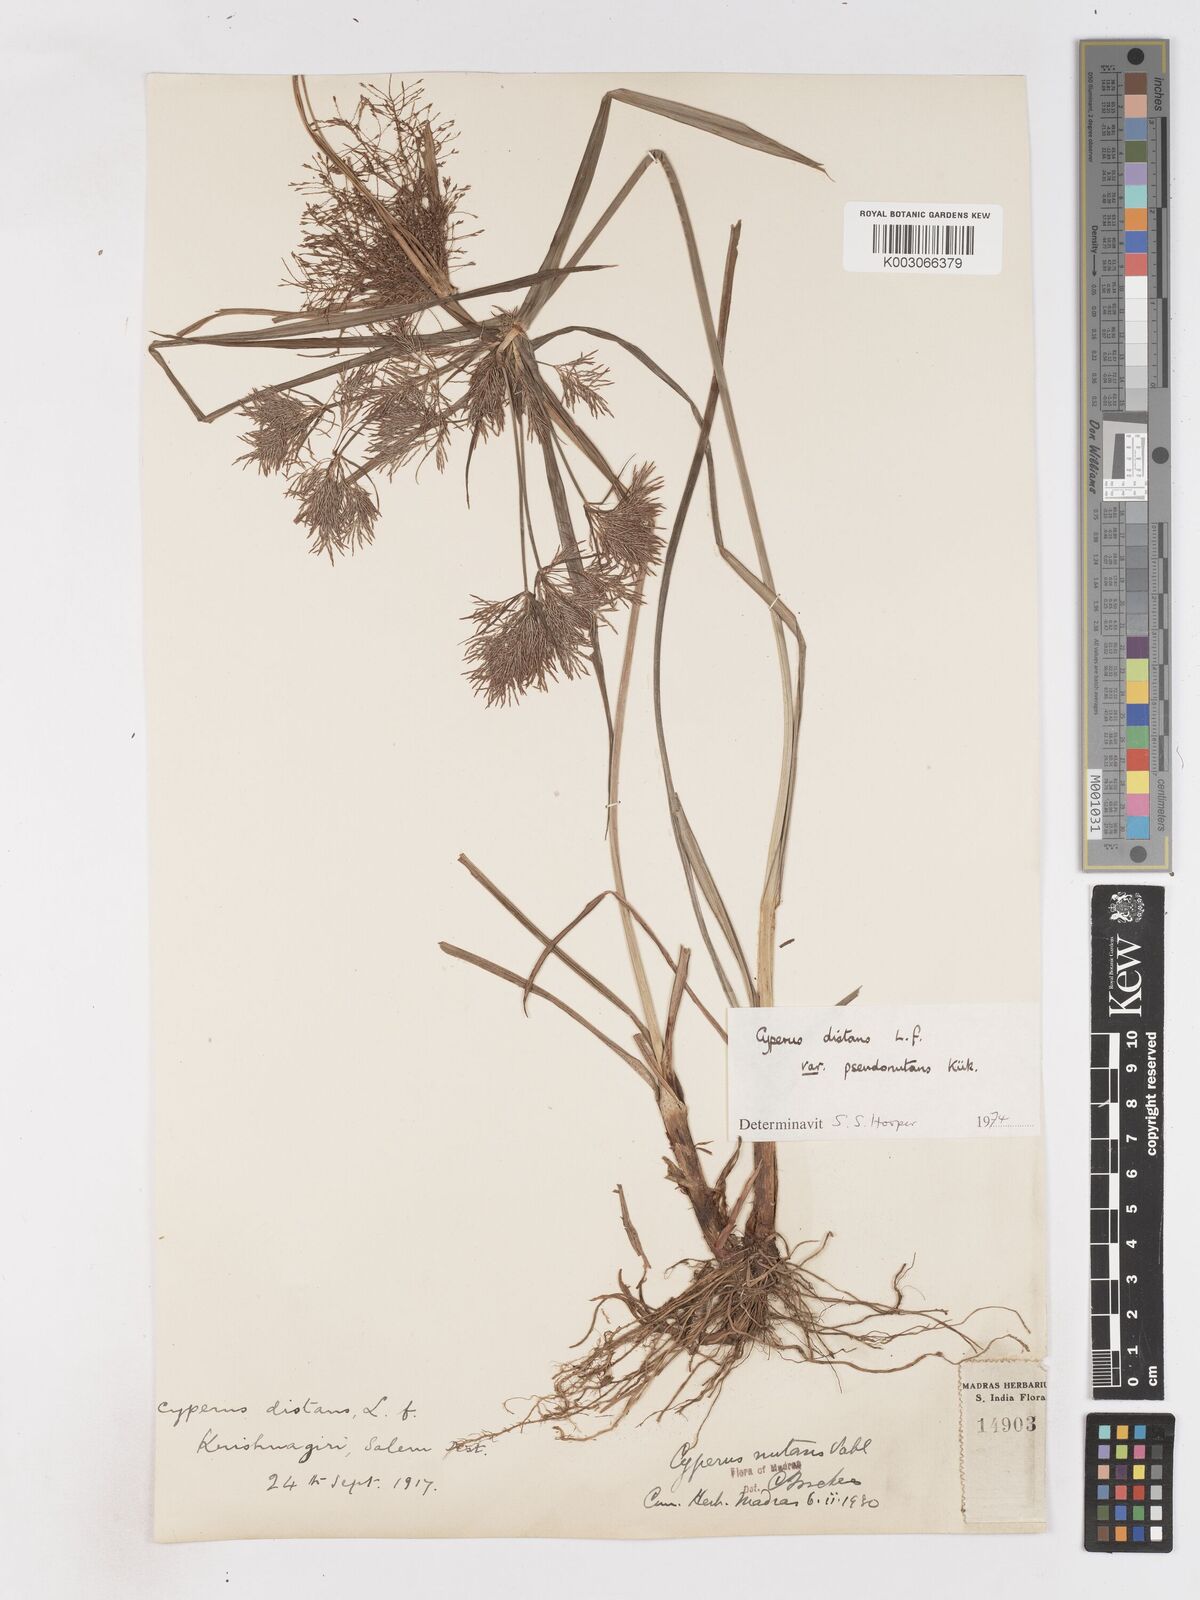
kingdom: Plantae
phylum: Tracheophyta
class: Liliopsida
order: Poales
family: Cyperaceae
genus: Cyperus
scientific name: Cyperus distans
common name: Slender cyperus
